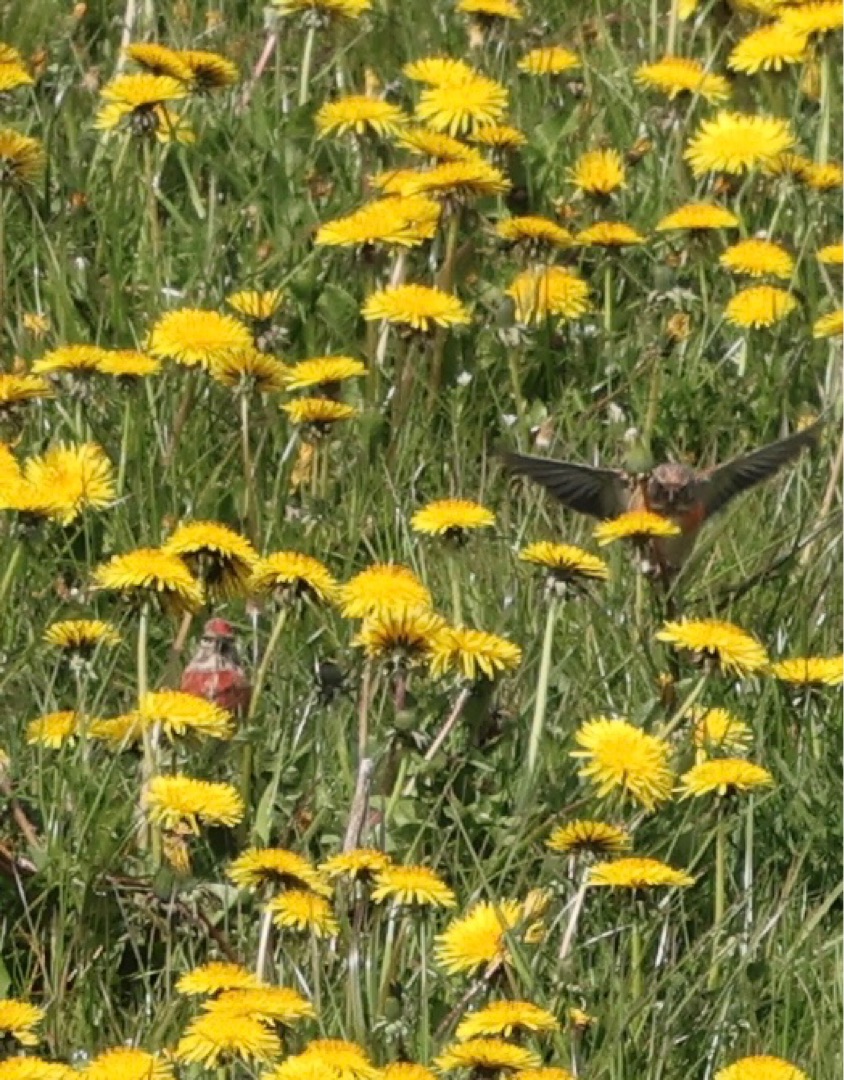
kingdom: Animalia
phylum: Chordata
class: Aves
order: Passeriformes
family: Fringillidae
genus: Linaria
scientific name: Linaria cannabina
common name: Tornirisk
